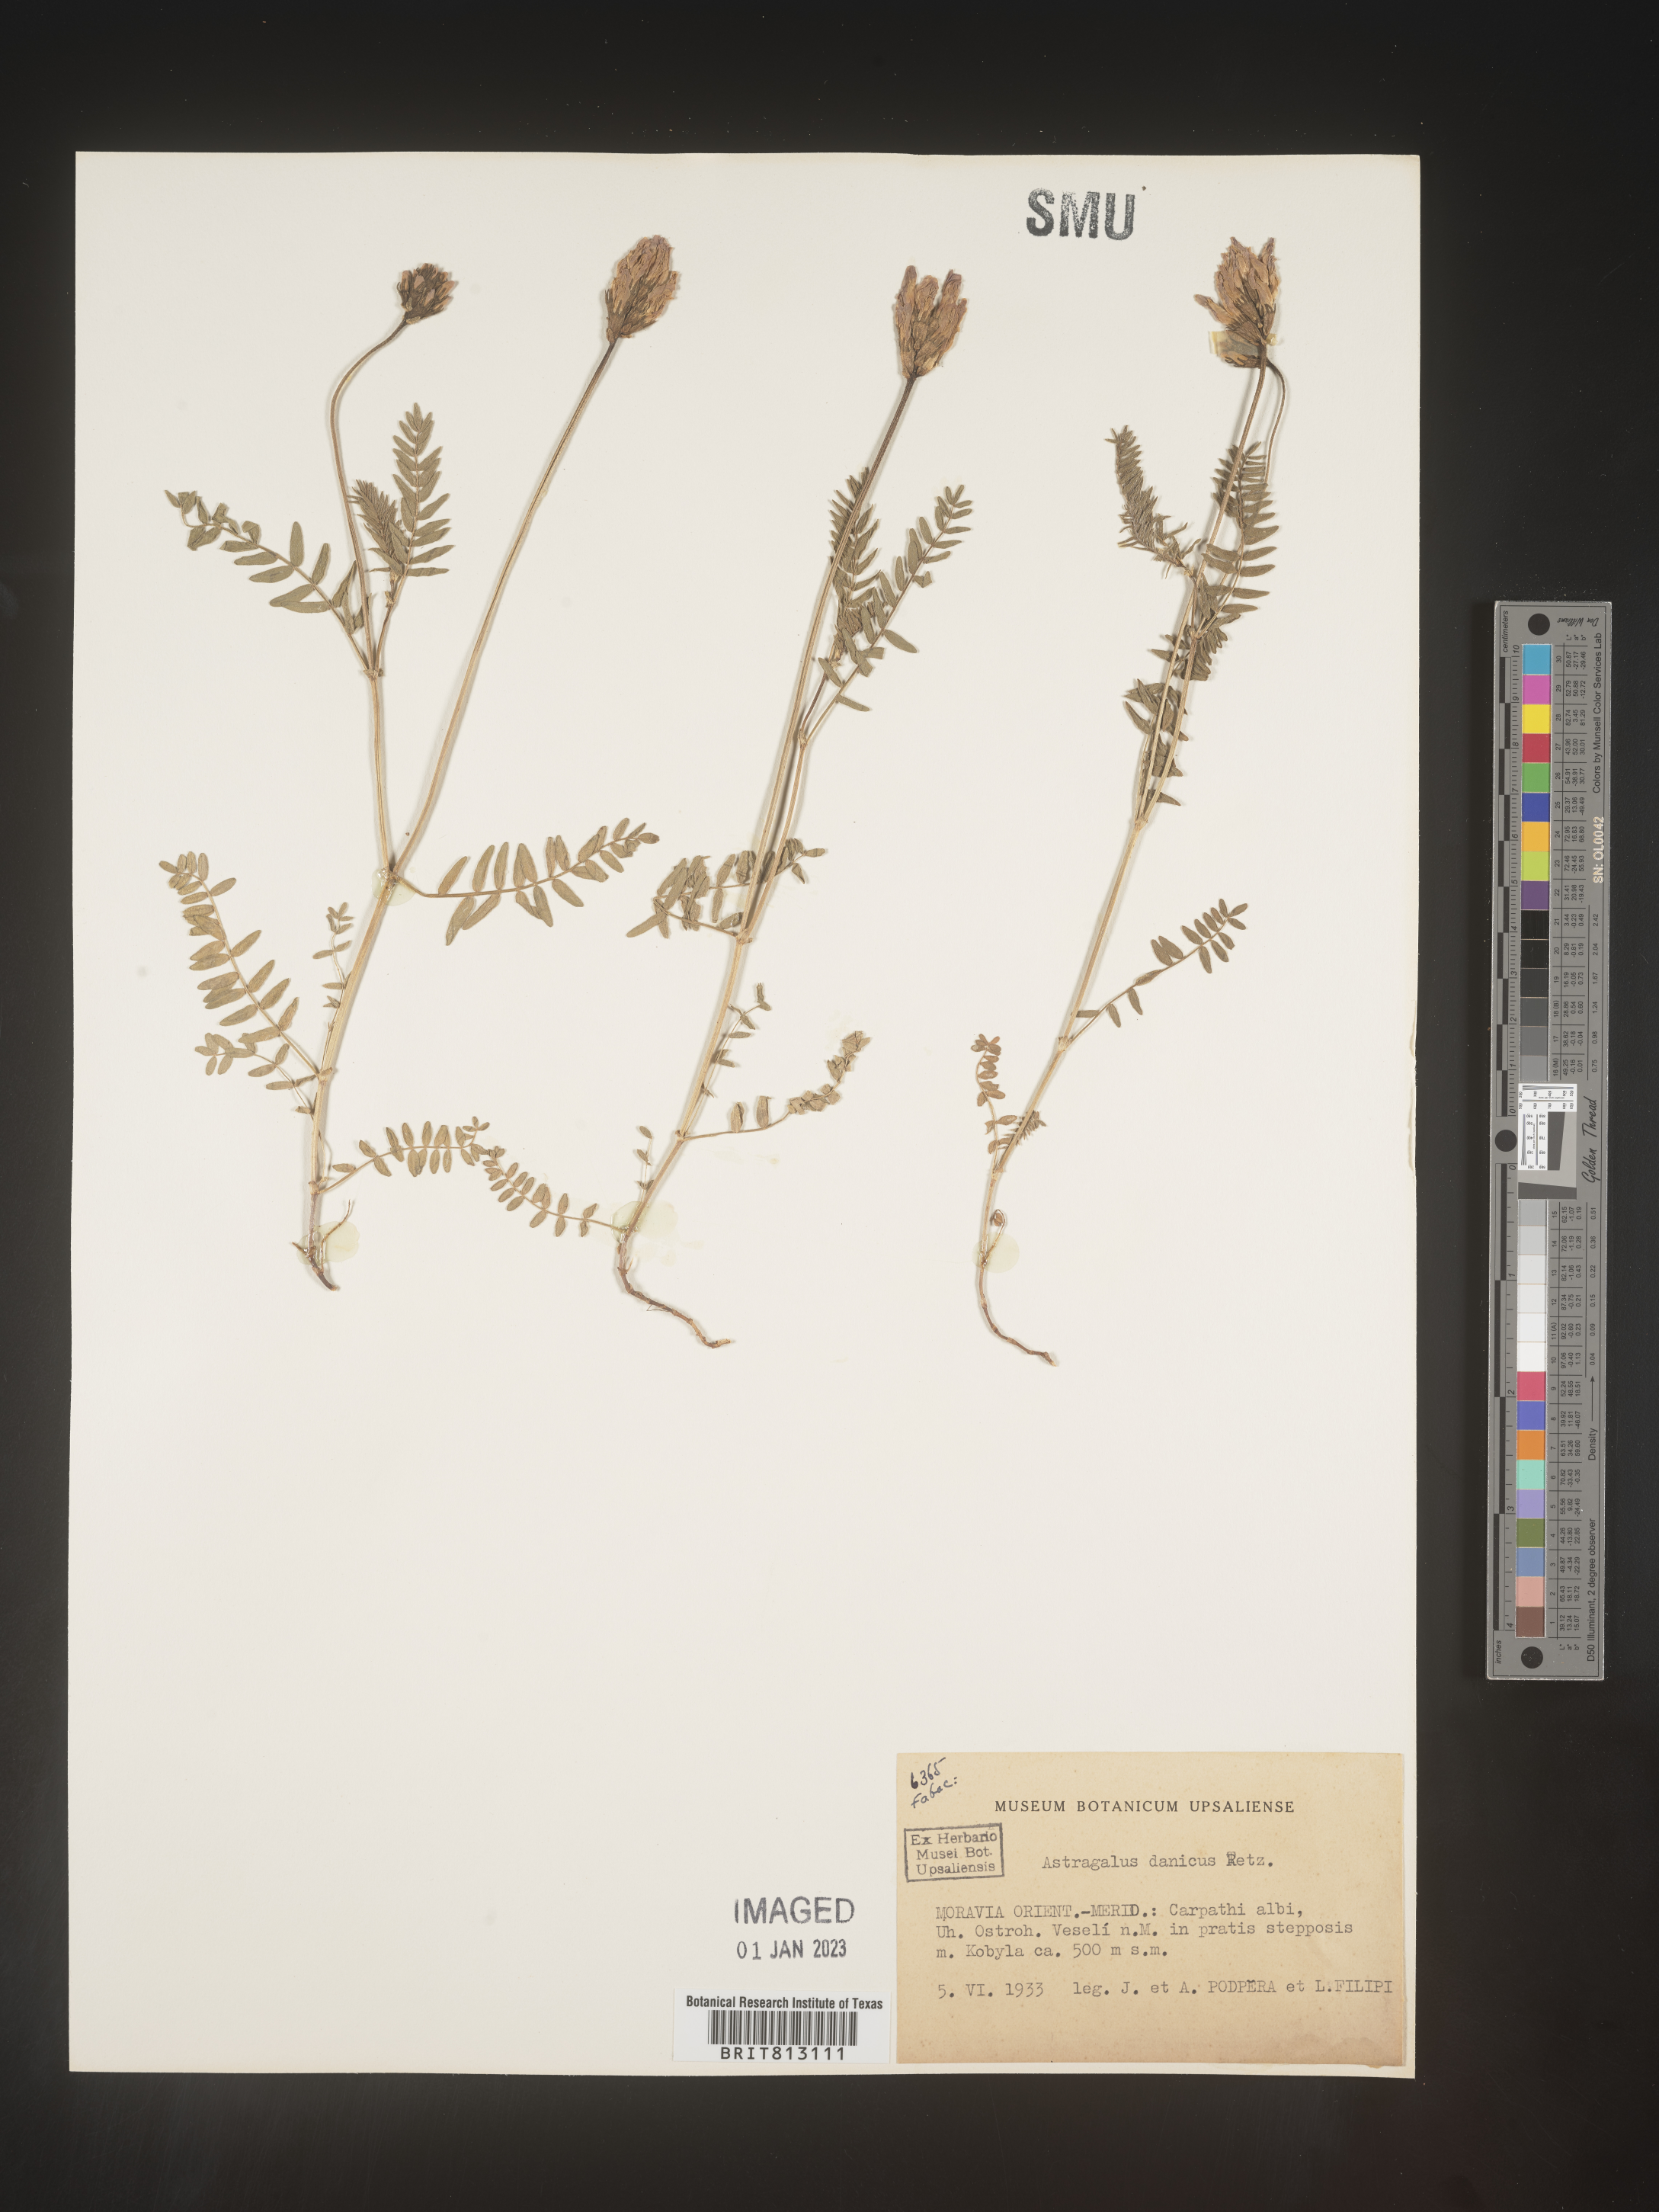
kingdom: Plantae
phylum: Tracheophyta
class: Magnoliopsida
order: Fabales
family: Fabaceae
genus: Astragalus
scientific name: Astragalus
